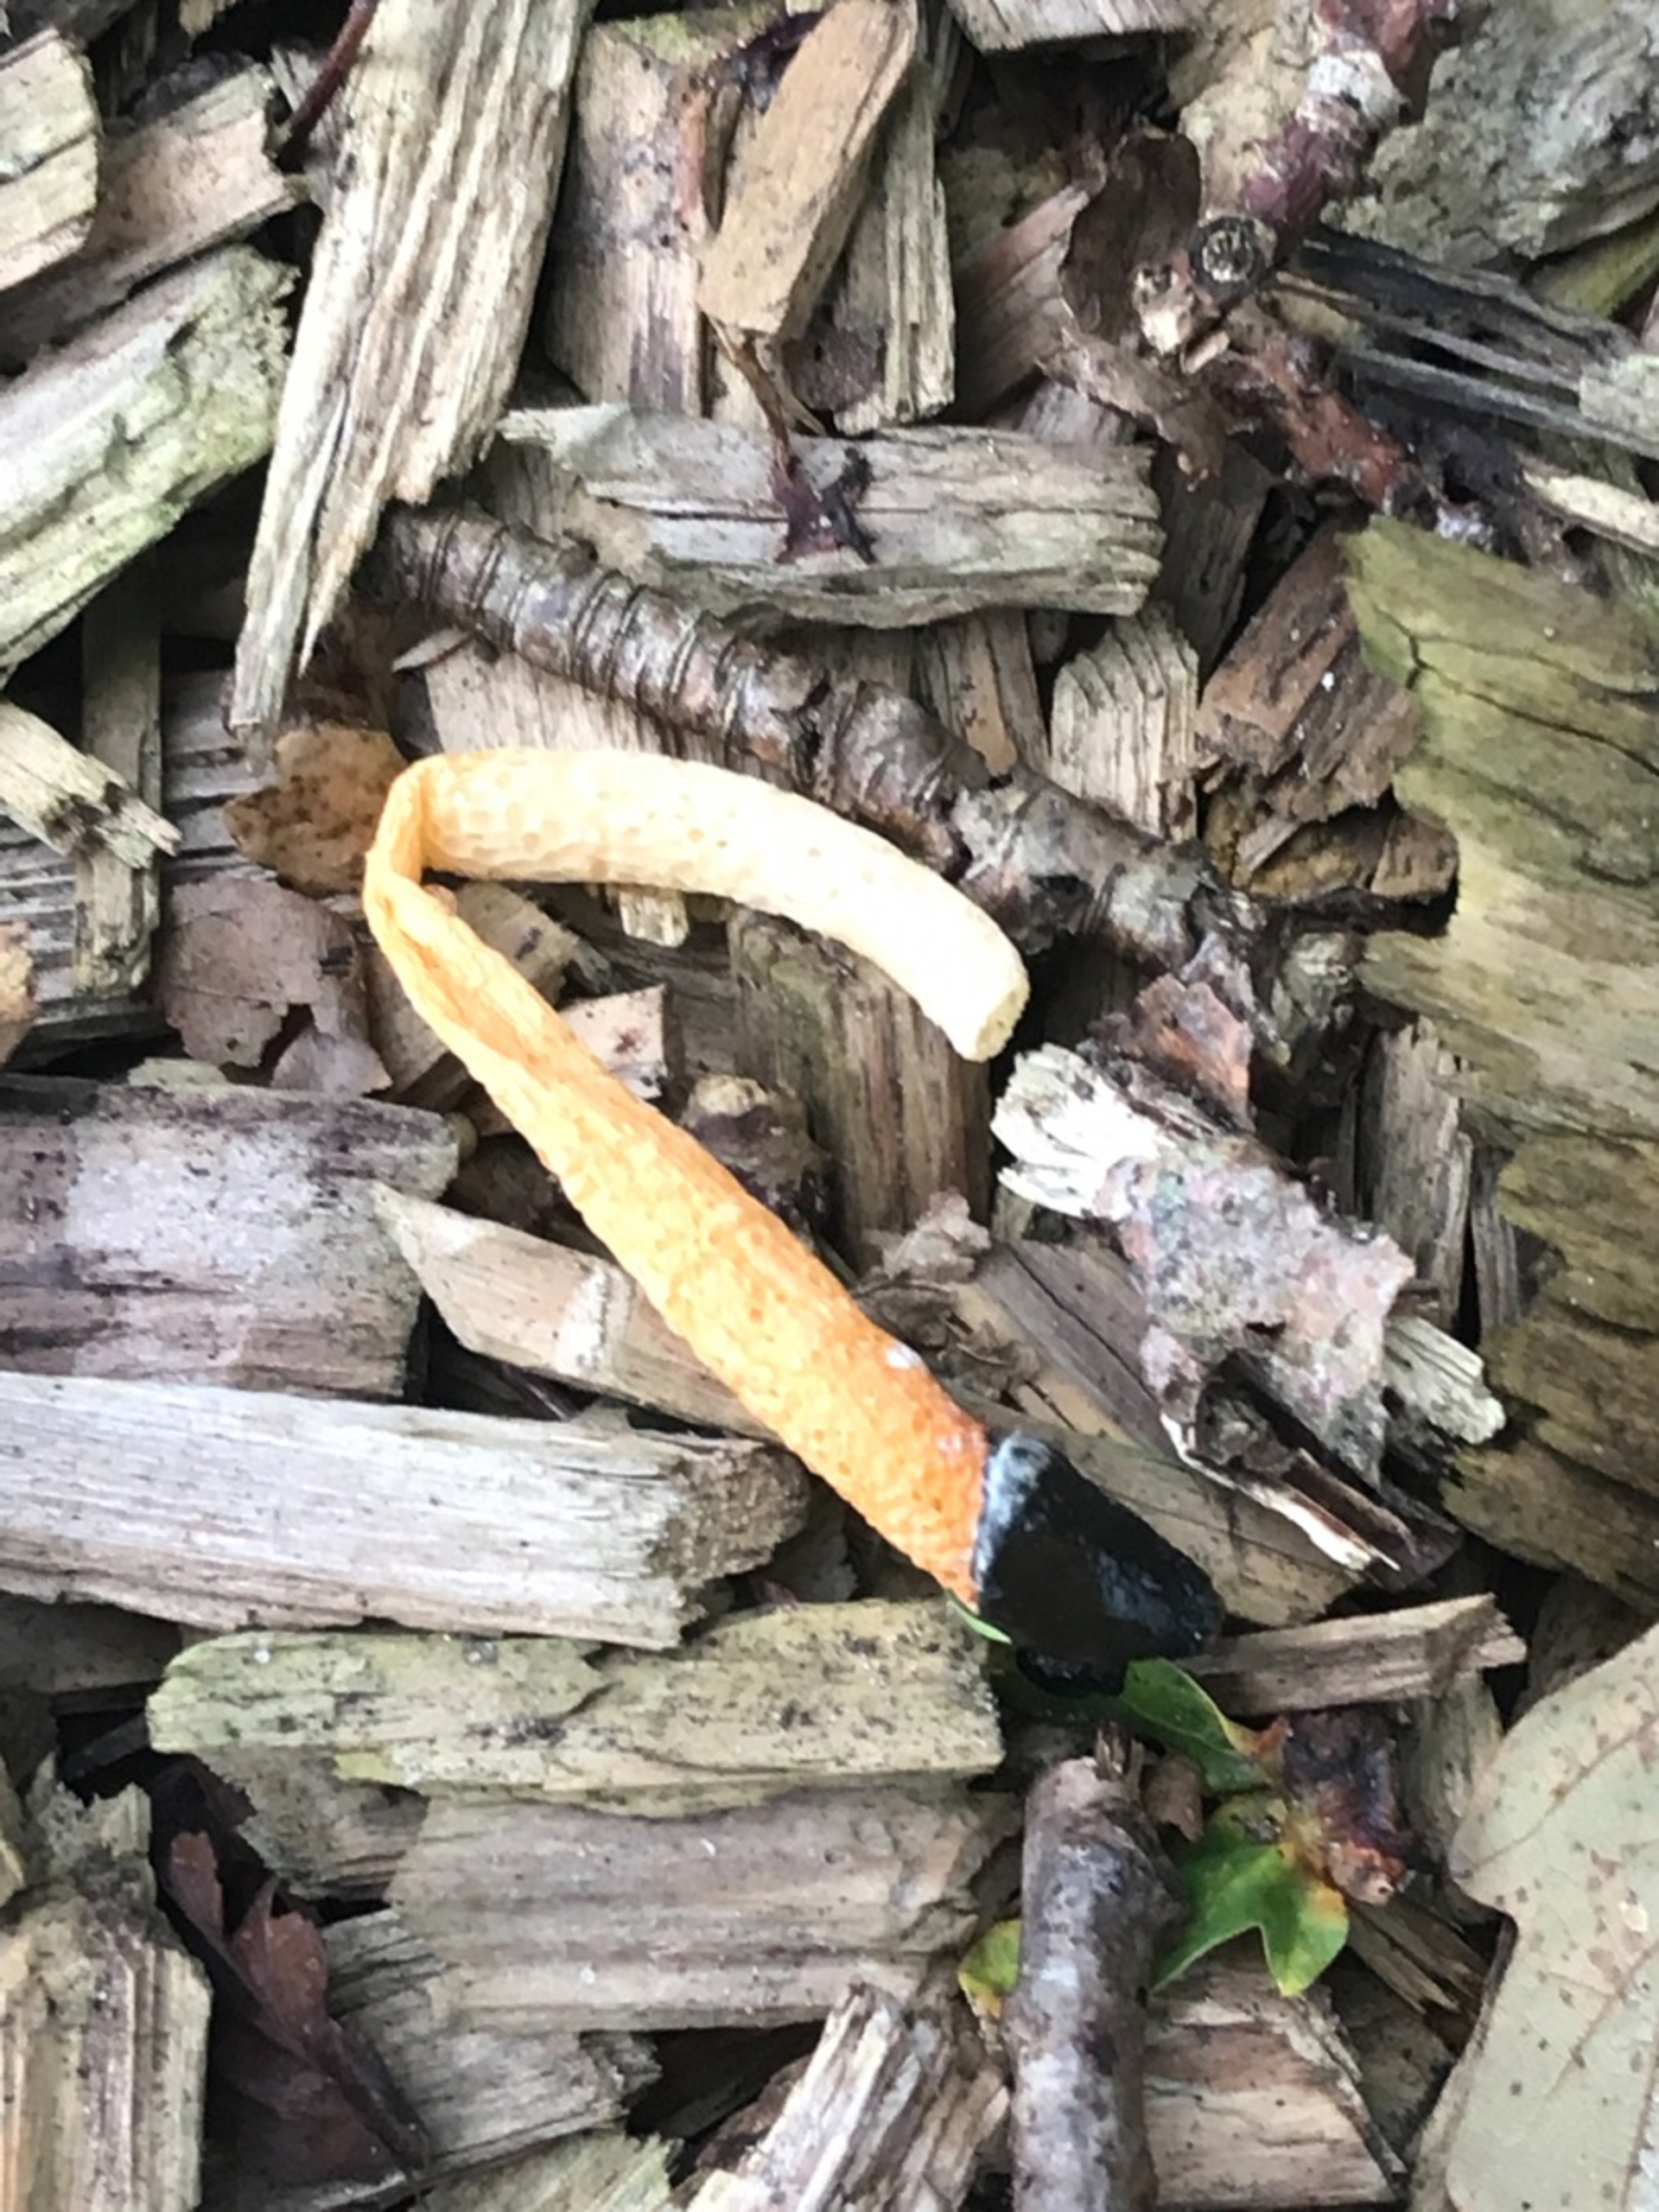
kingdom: Fungi
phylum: Basidiomycota
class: Agaricomycetes
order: Phallales
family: Phallaceae
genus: Mutinus
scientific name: Mutinus caninus
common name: Hunde-stinksvamp
